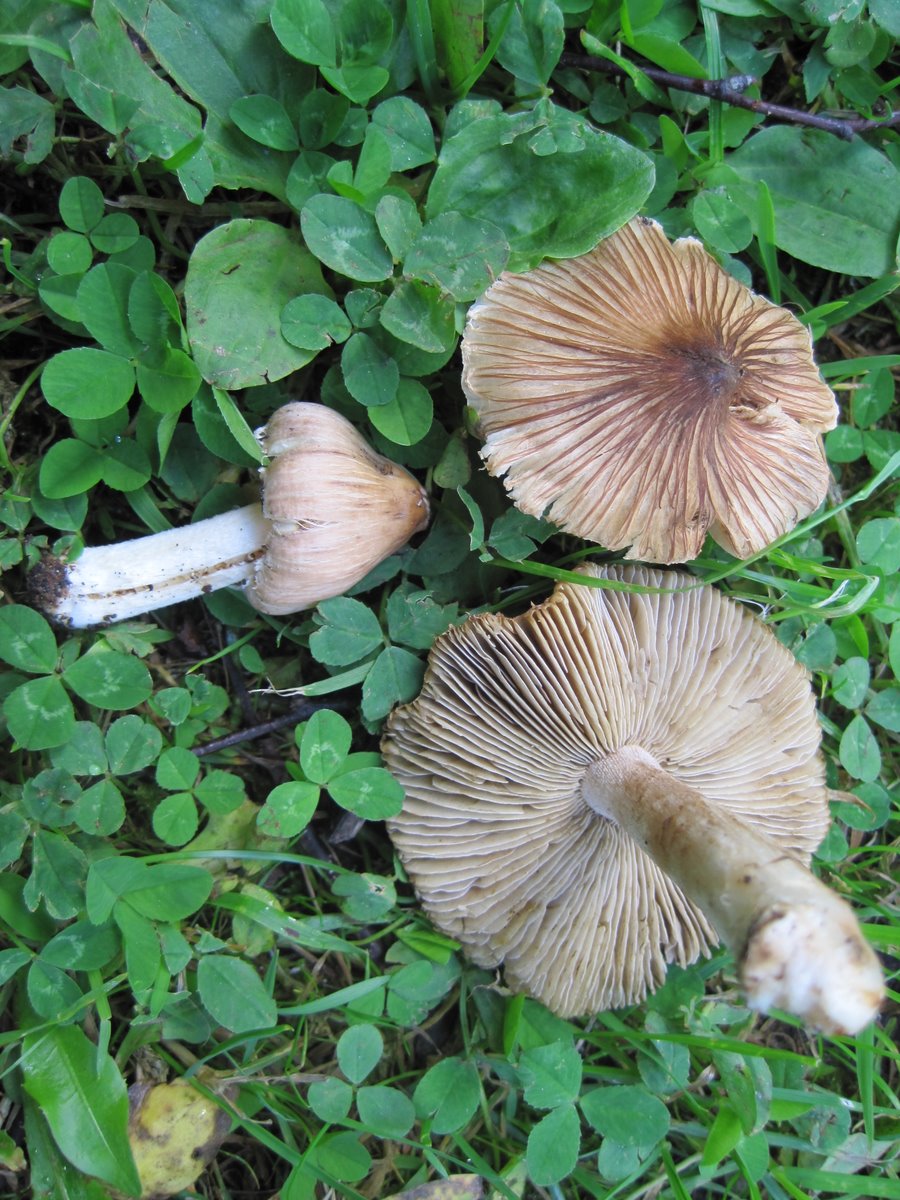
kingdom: Fungi
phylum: Basidiomycota
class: Agaricomycetes
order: Agaricales
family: Inocybaceae
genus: Pseudosperma
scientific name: Pseudosperma rimosum
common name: gulbladet trævlhat
